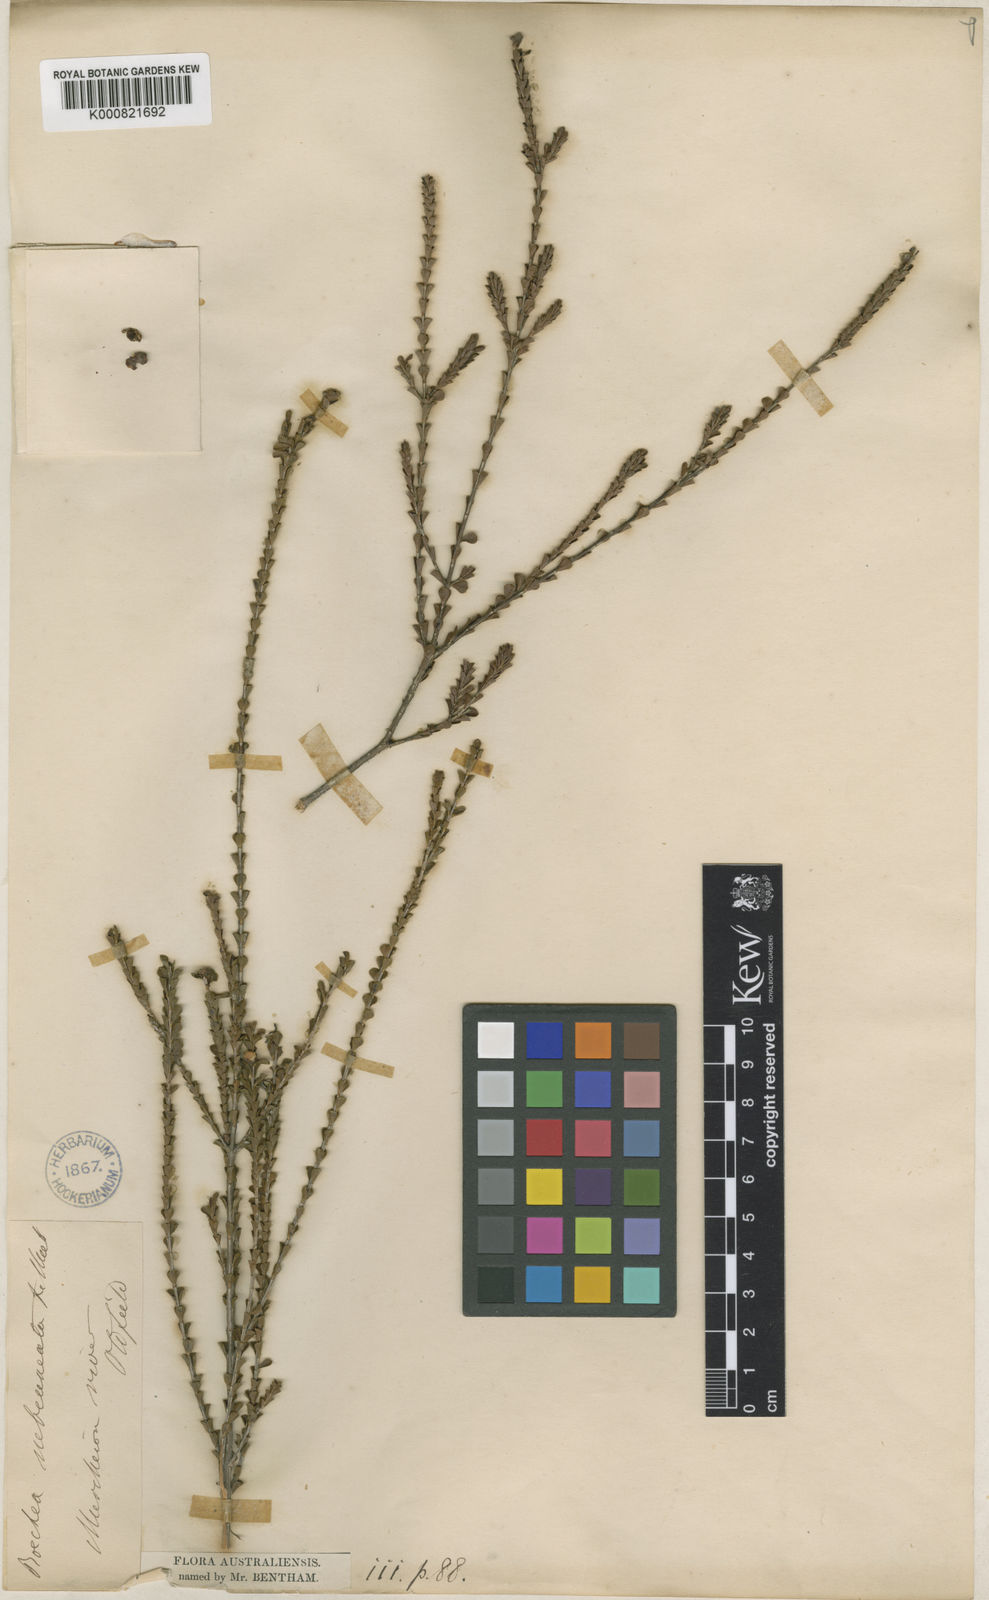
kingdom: Plantae
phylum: Tracheophyta
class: Magnoliopsida
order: Myrtales
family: Myrtaceae
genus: Baeckea
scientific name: Baeckea subcuneata
